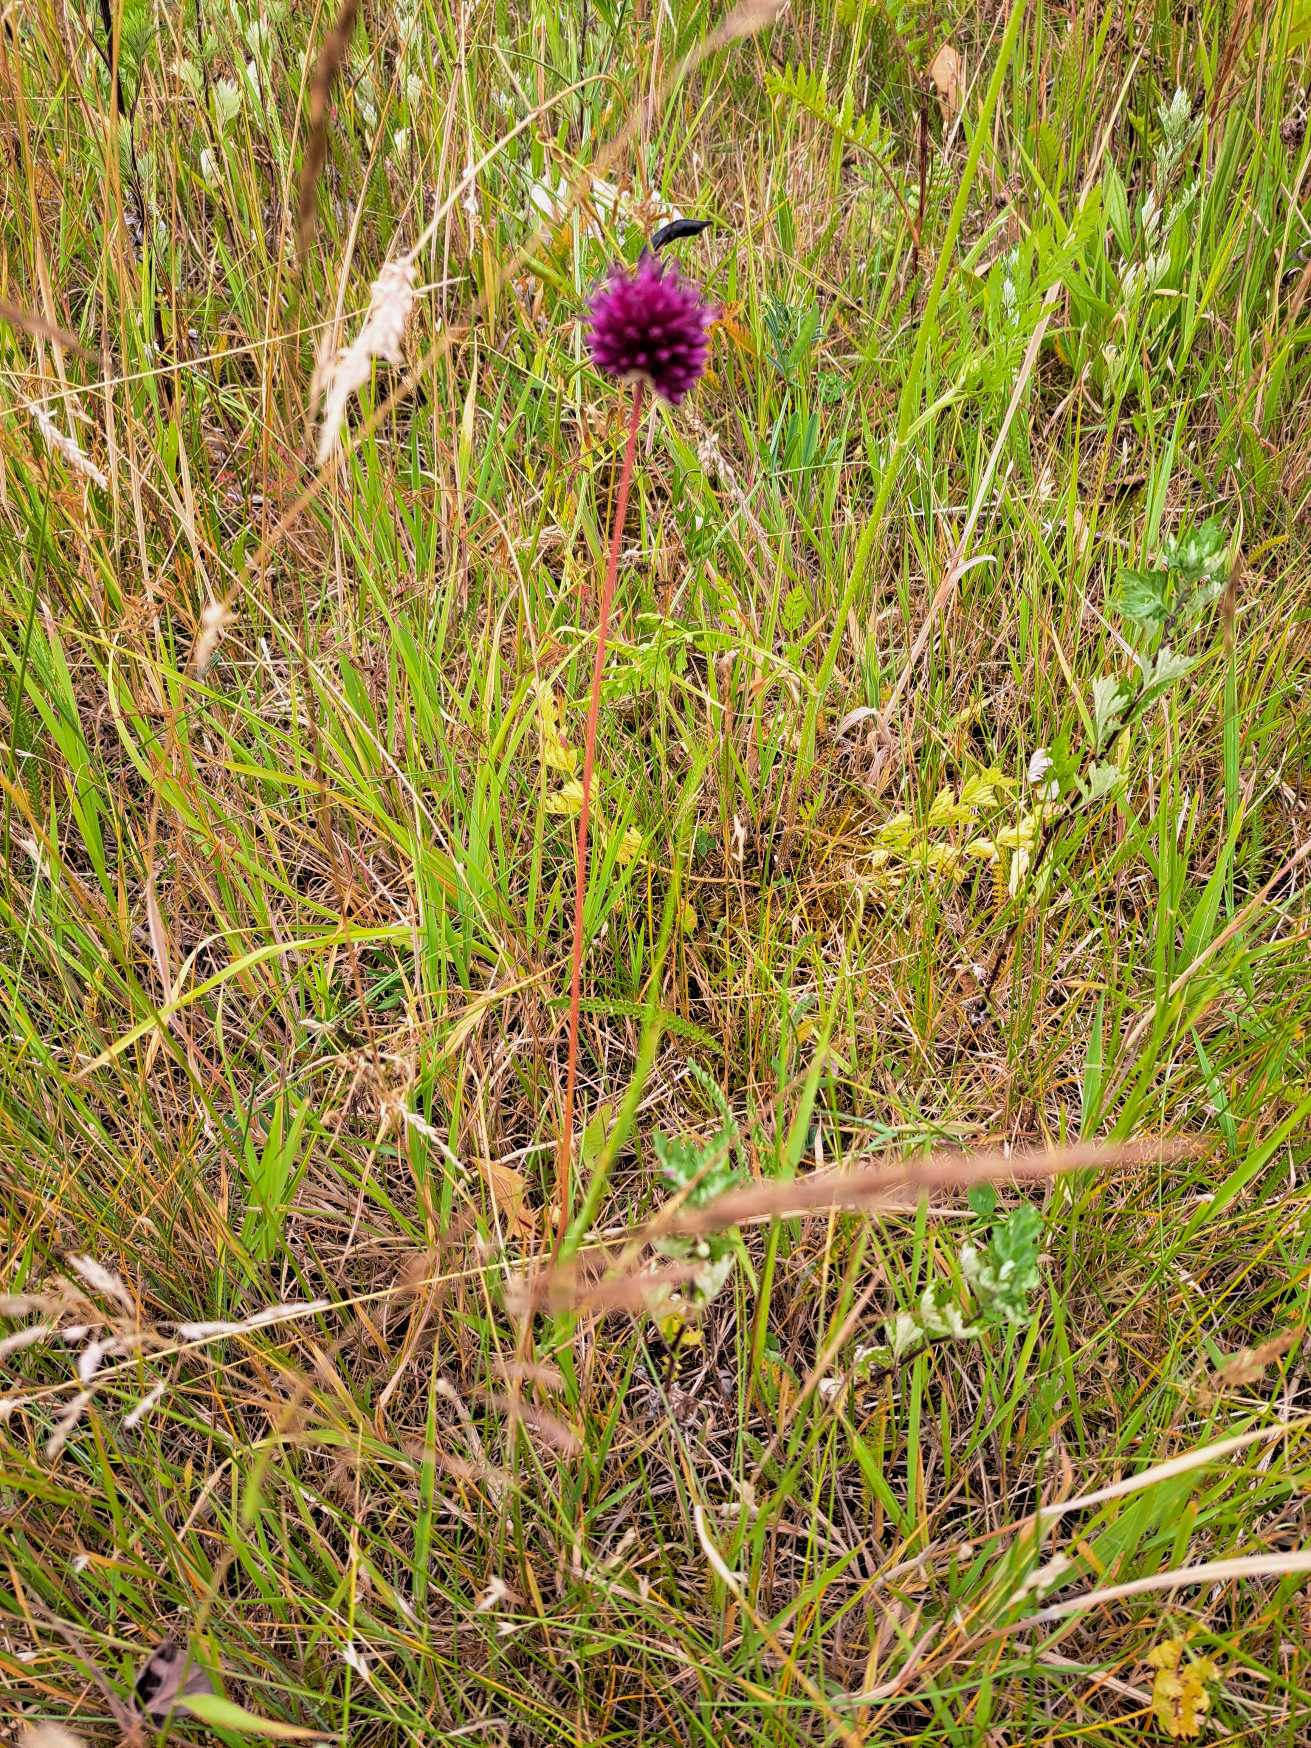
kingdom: Plantae
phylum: Tracheophyta
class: Liliopsida
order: Asparagales
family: Amaryllidaceae
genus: Allium
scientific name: Allium rotundum
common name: Rund løg
